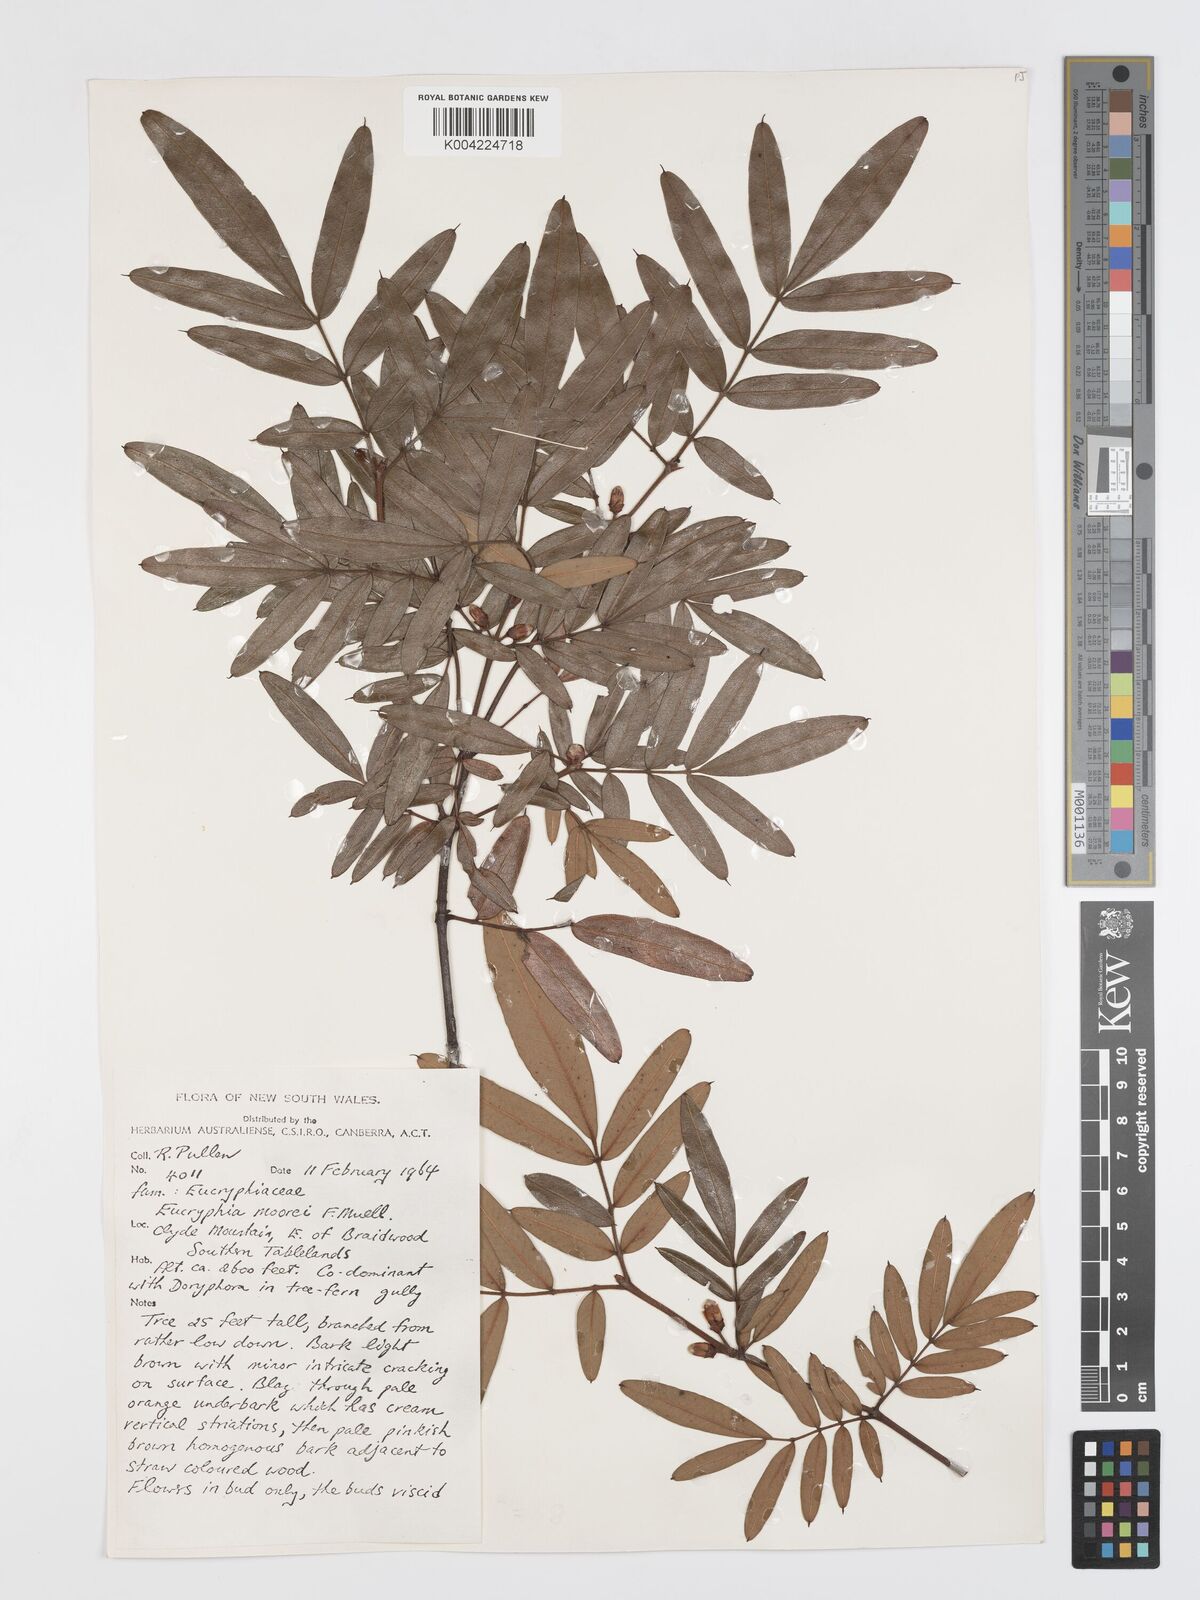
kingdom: Plantae
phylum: Tracheophyta
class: Magnoliopsida
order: Oxalidales
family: Cunoniaceae
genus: Eucryphia
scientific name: Eucryphia moorei
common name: Acacia-plum
